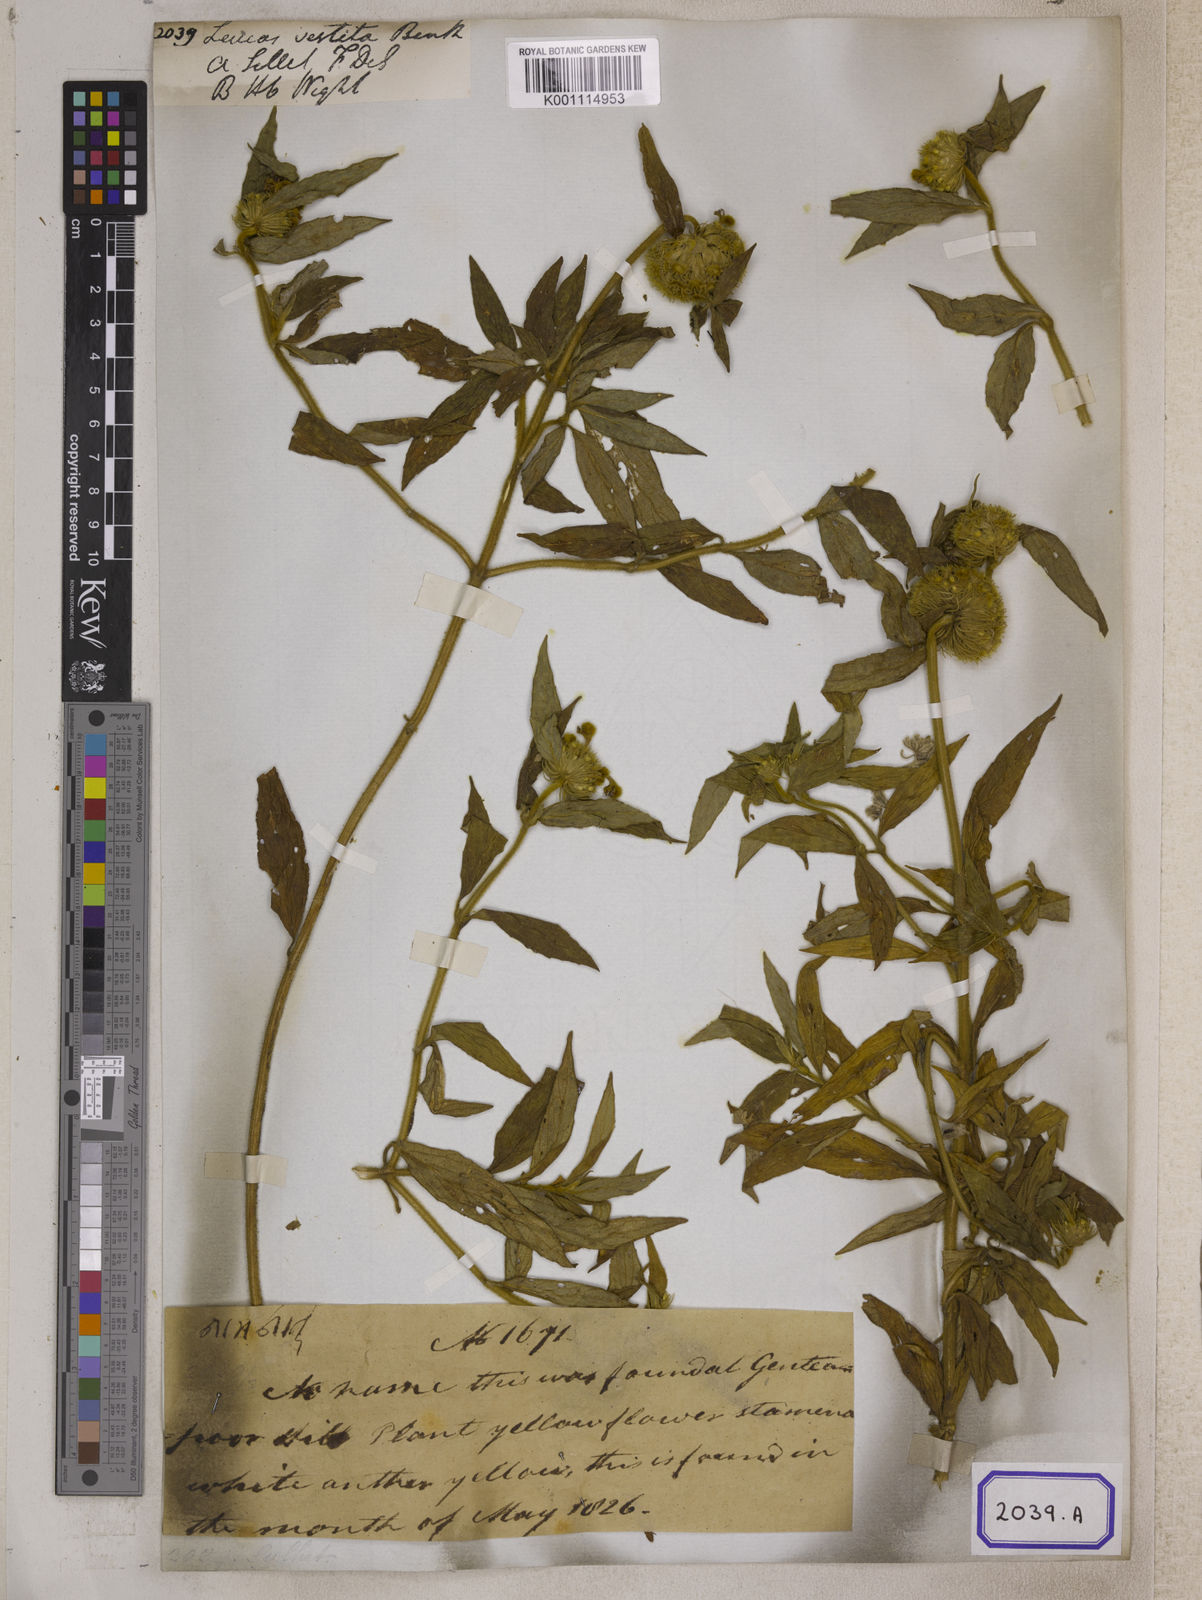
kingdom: Plantae
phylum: Tracheophyta
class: Magnoliopsida
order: Lamiales
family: Lamiaceae
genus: Leucas
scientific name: Leucas vestita
